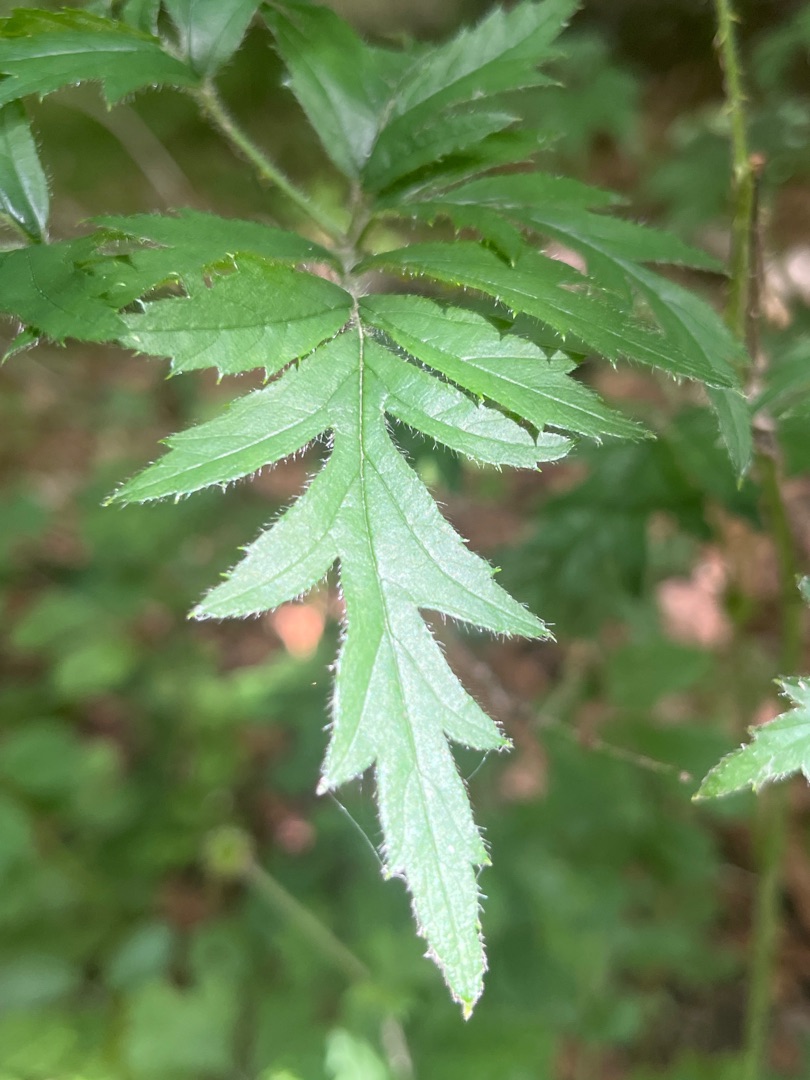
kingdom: Plantae
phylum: Tracheophyta
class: Magnoliopsida
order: Rosales
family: Rosaceae
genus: Rubus
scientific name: Rubus laciniatus
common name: Fliget brombær
